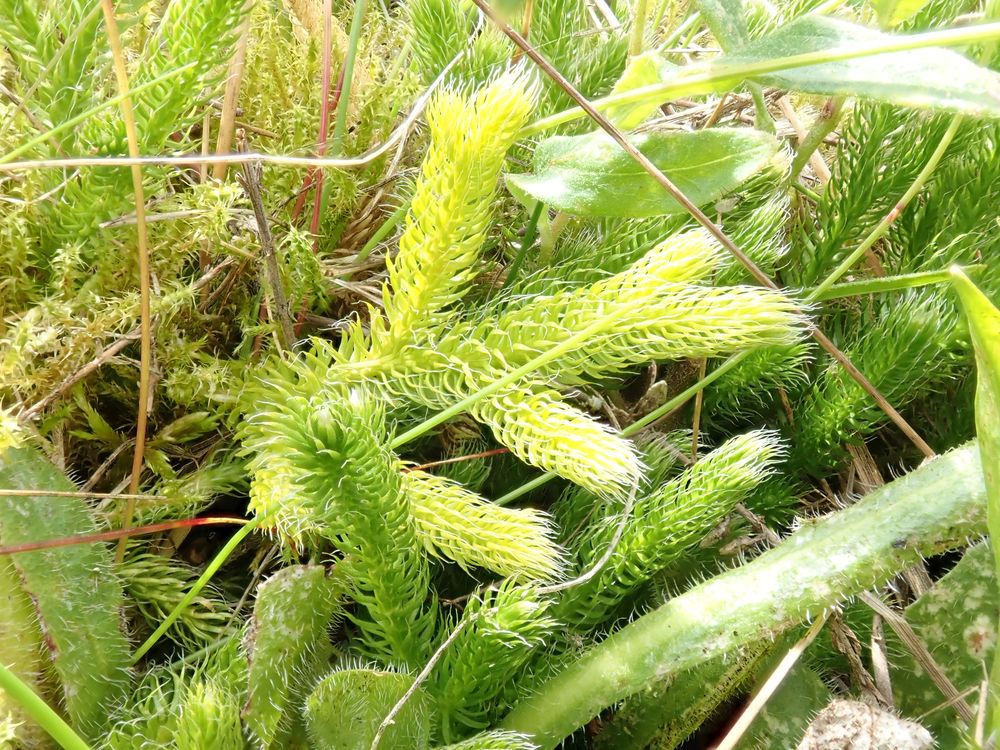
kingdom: Plantae
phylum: Tracheophyta
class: Lycopodiopsida
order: Lycopodiales
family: Lycopodiaceae
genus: Lycopodium
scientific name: Lycopodium clavatum
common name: Almindelig ulvefod
